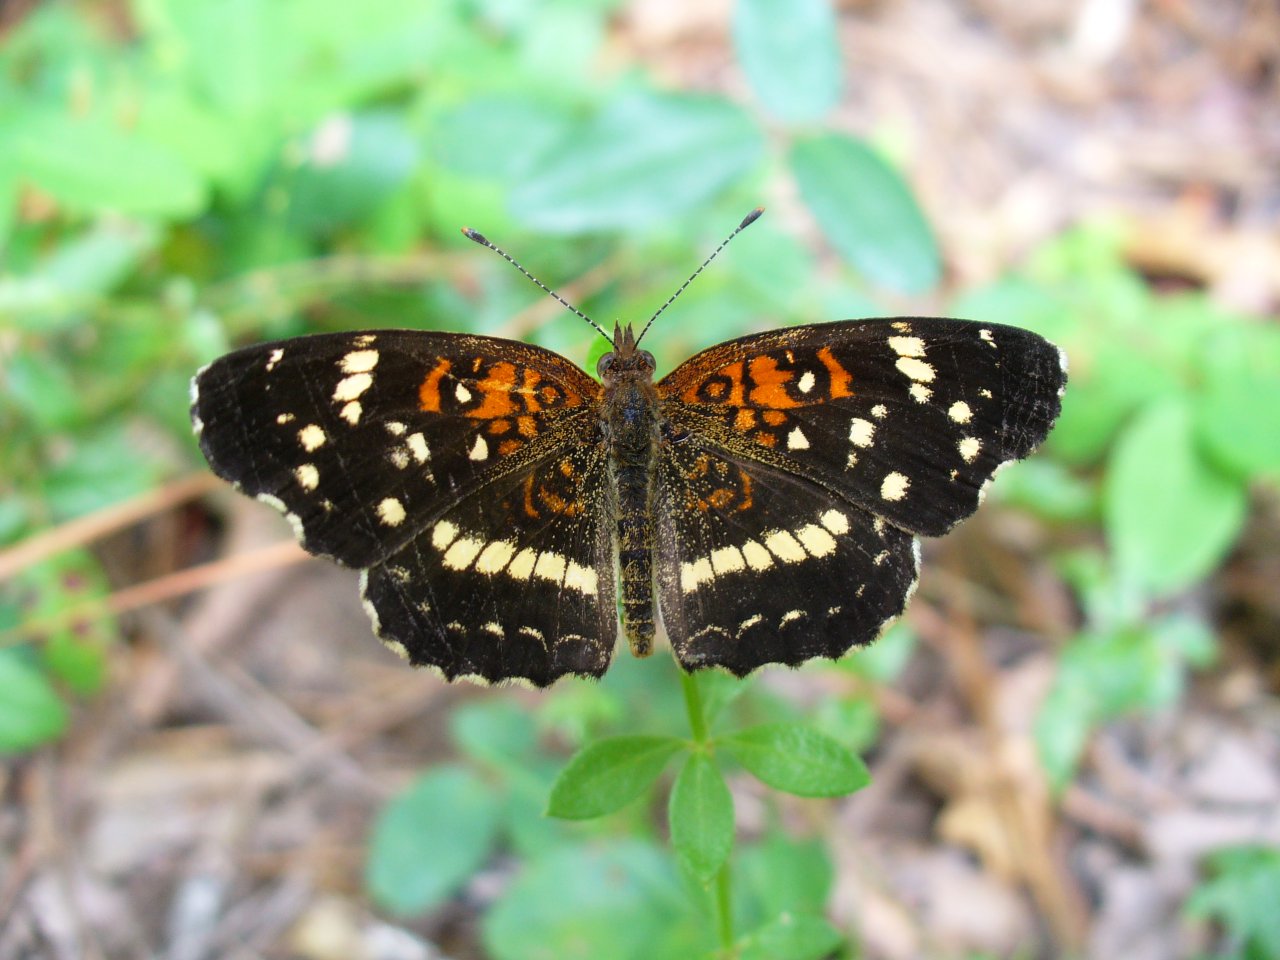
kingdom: Animalia
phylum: Arthropoda
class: Insecta
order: Lepidoptera
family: Nymphalidae
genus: Anthanassa
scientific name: Anthanassa texana
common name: Texan Crescent
